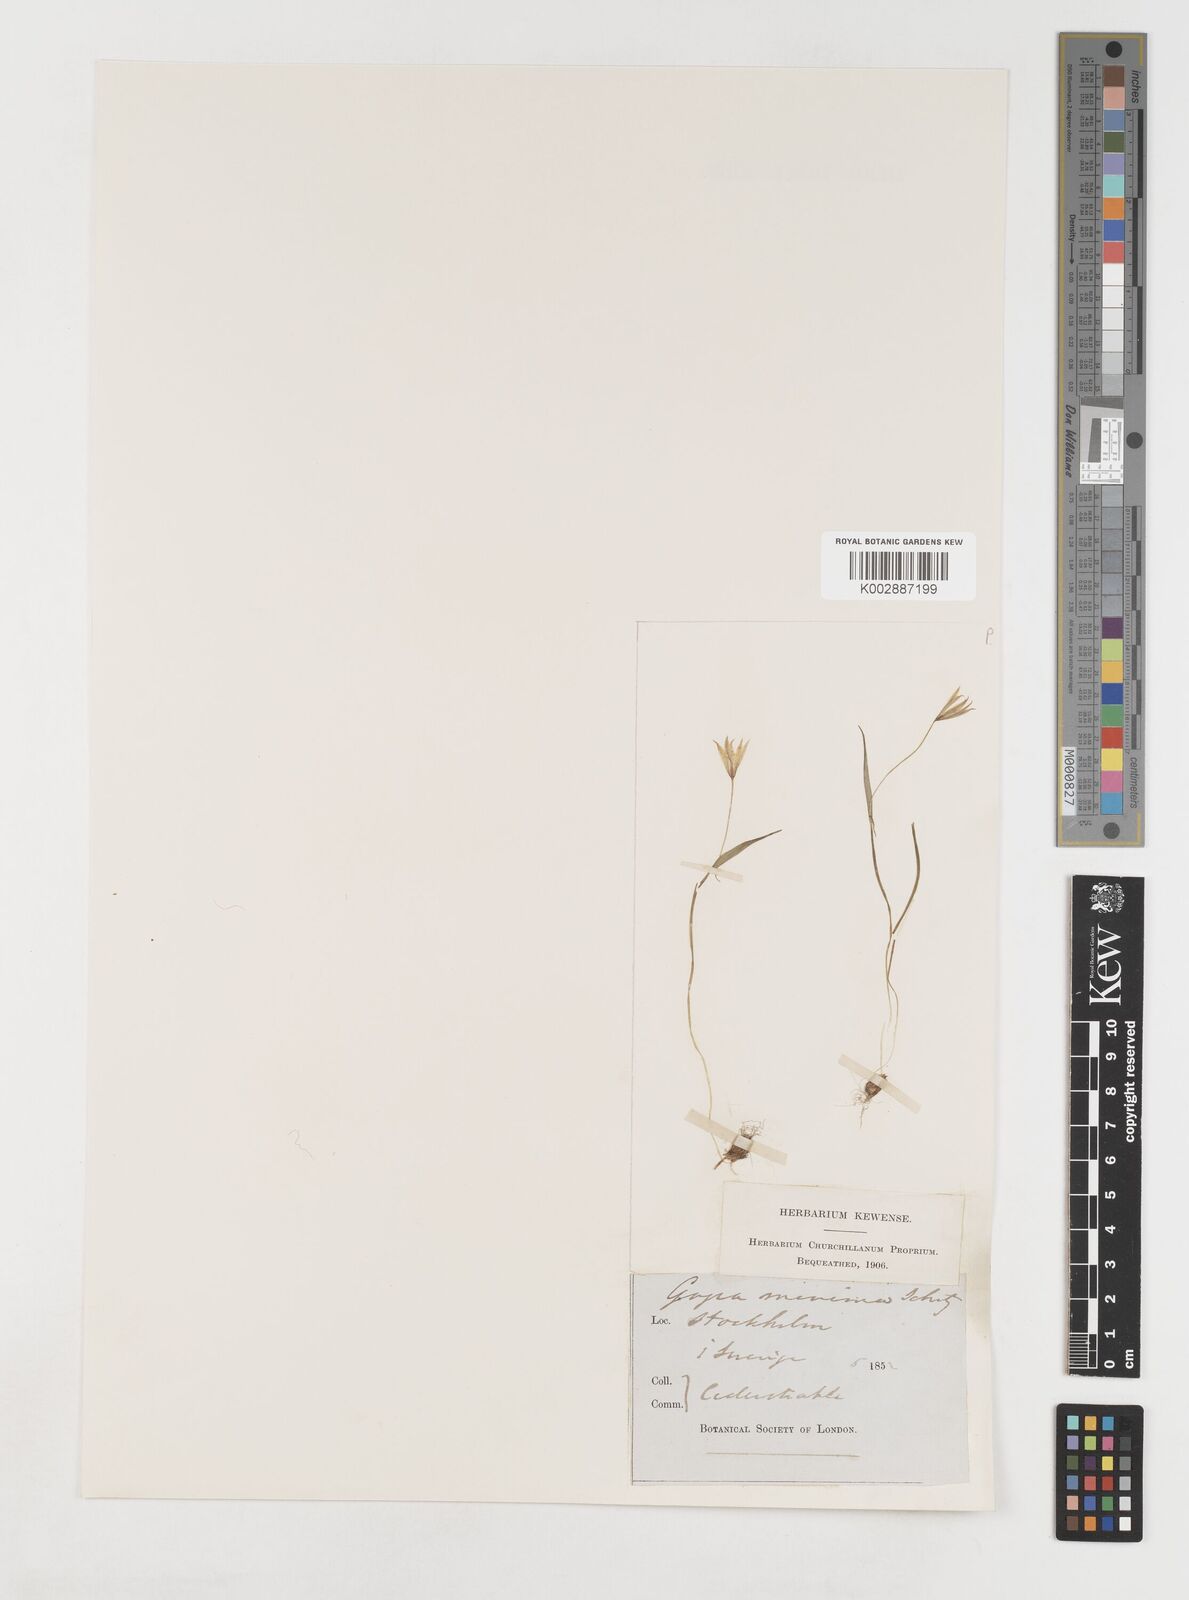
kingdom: Plantae
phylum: Tracheophyta
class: Liliopsida
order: Liliales
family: Liliaceae
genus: Gagea
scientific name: Gagea minima
